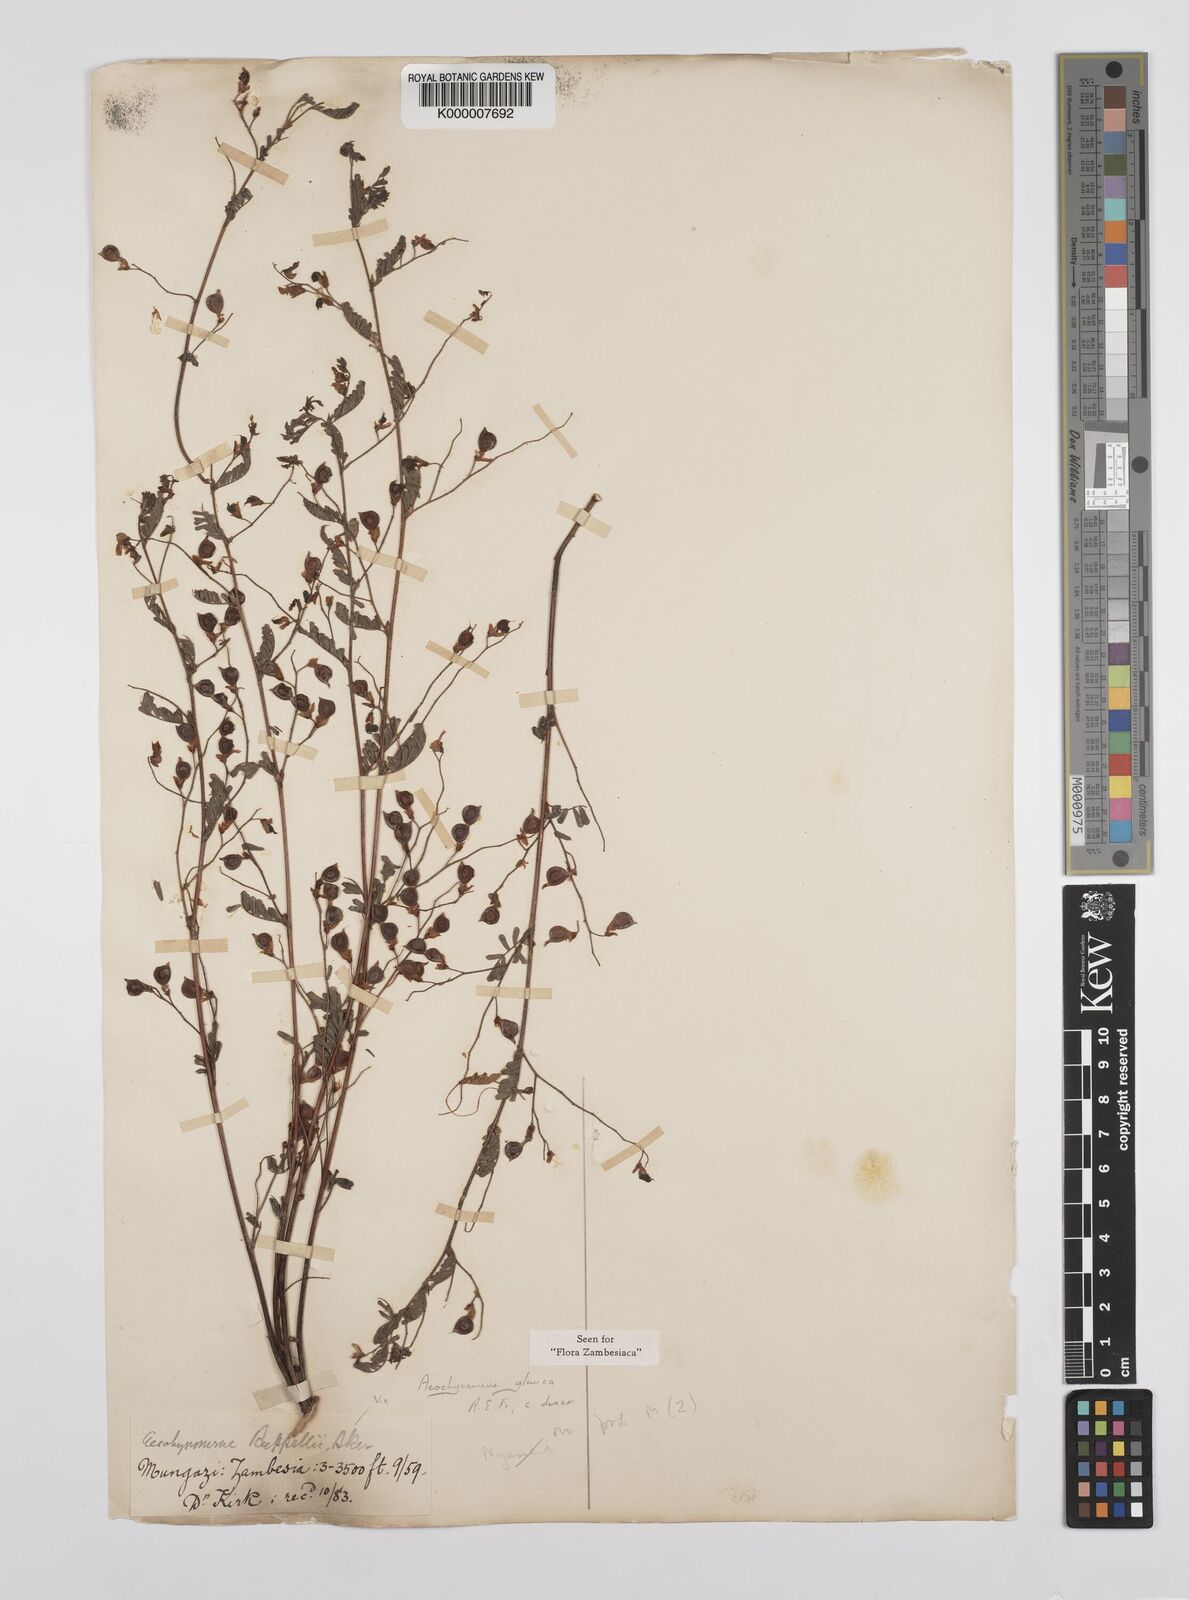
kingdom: Plantae
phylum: Tracheophyta
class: Magnoliopsida
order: Fabales
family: Fabaceae
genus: Aeschynomene
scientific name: Aeschynomene glauca
